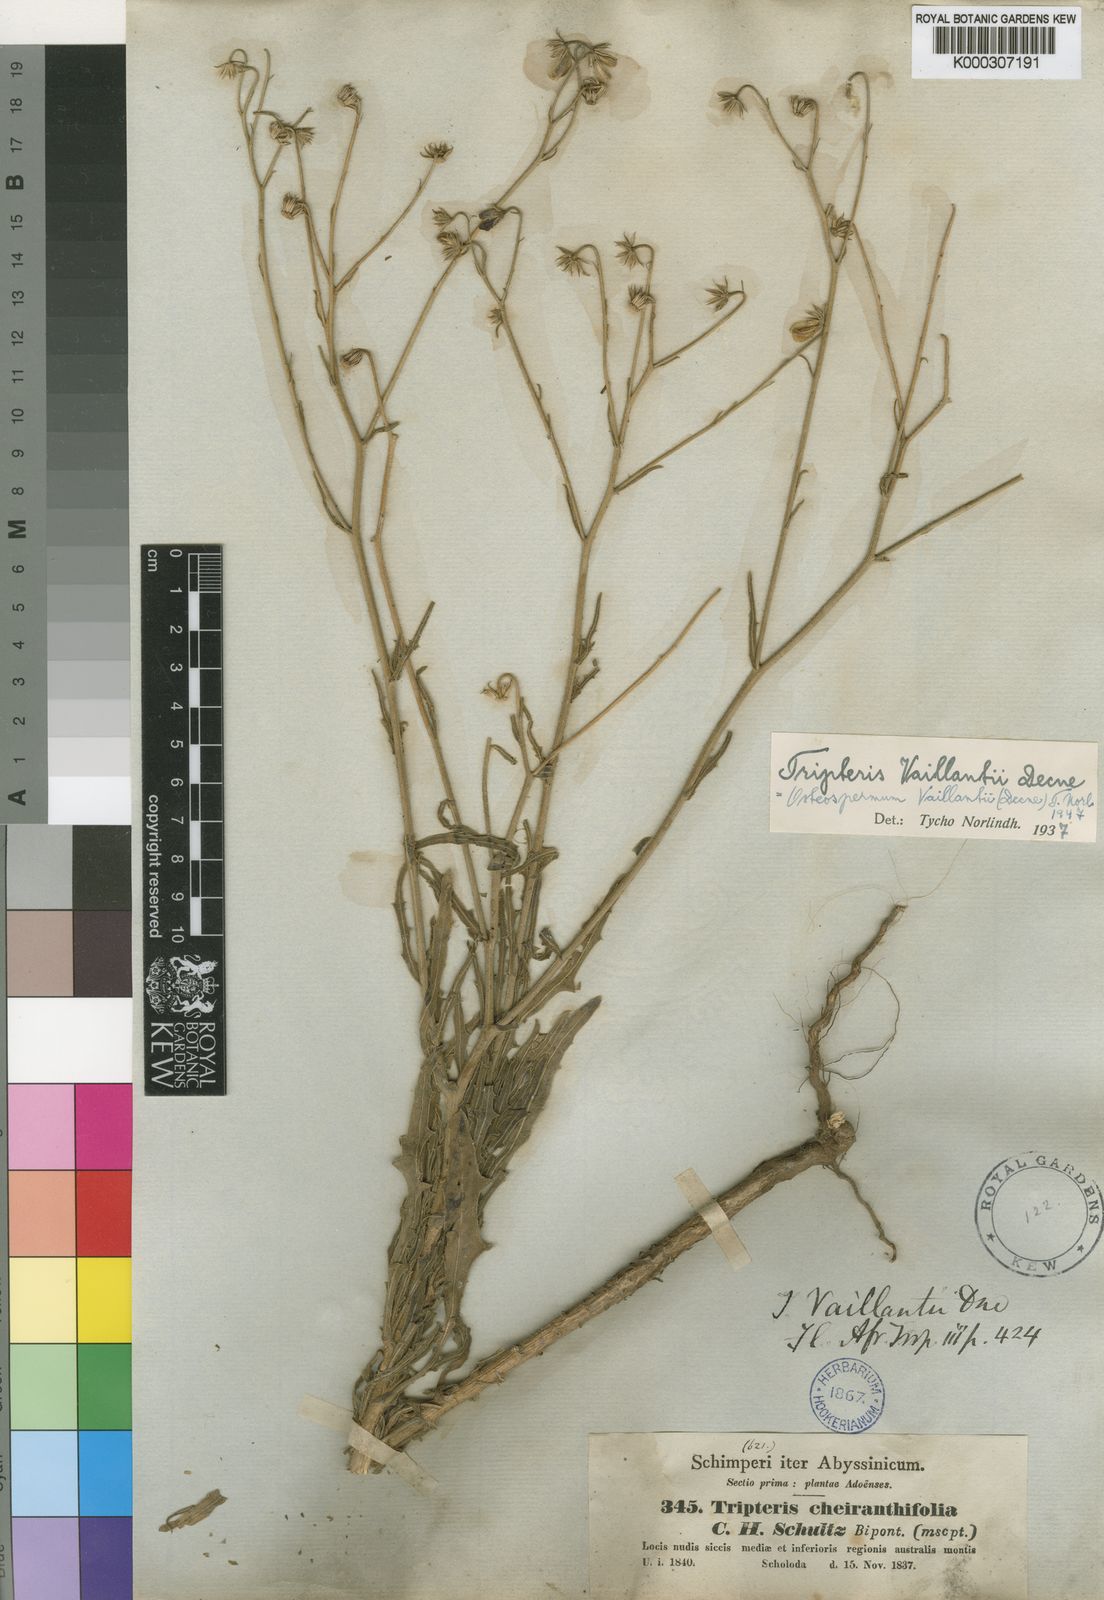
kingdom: Plantae
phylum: Tracheophyta
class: Magnoliopsida
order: Asterales
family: Asteraceae
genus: Osteospermum
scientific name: Osteospermum vaillantii
